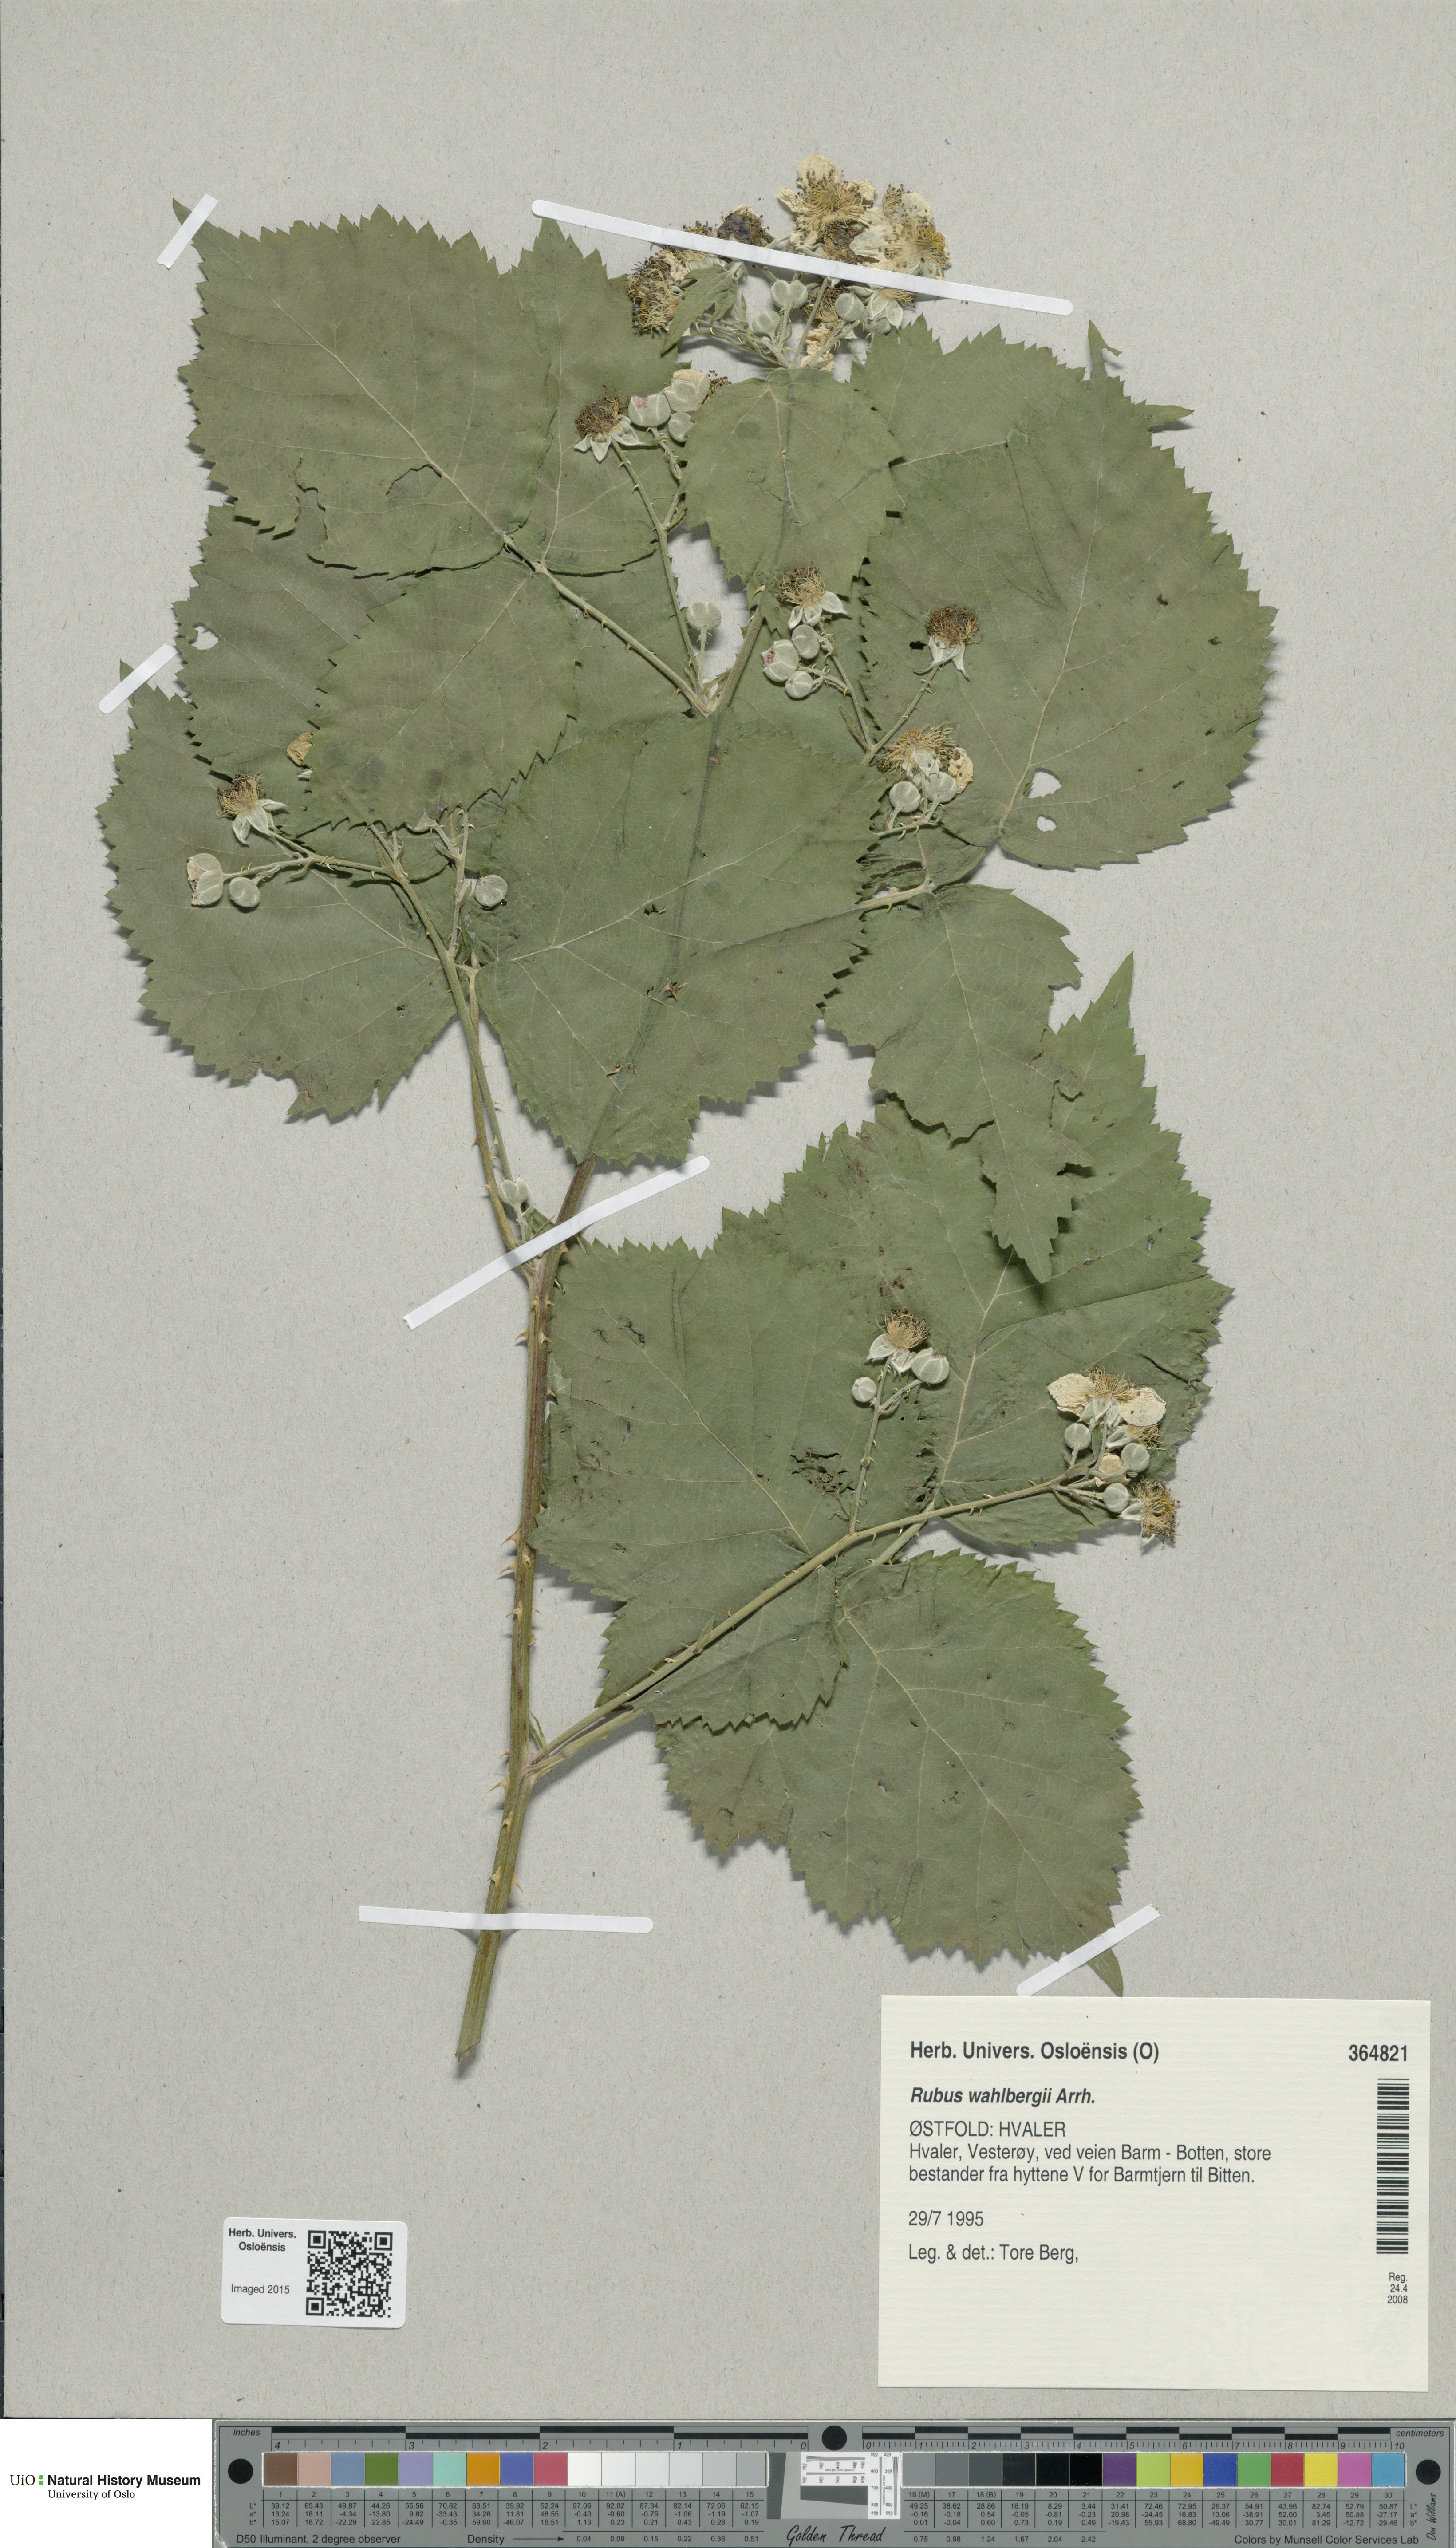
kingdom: Plantae
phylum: Tracheophyta
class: Magnoliopsida
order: Rosales
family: Rosaceae
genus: Rubus
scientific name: Rubus wahlbergii
